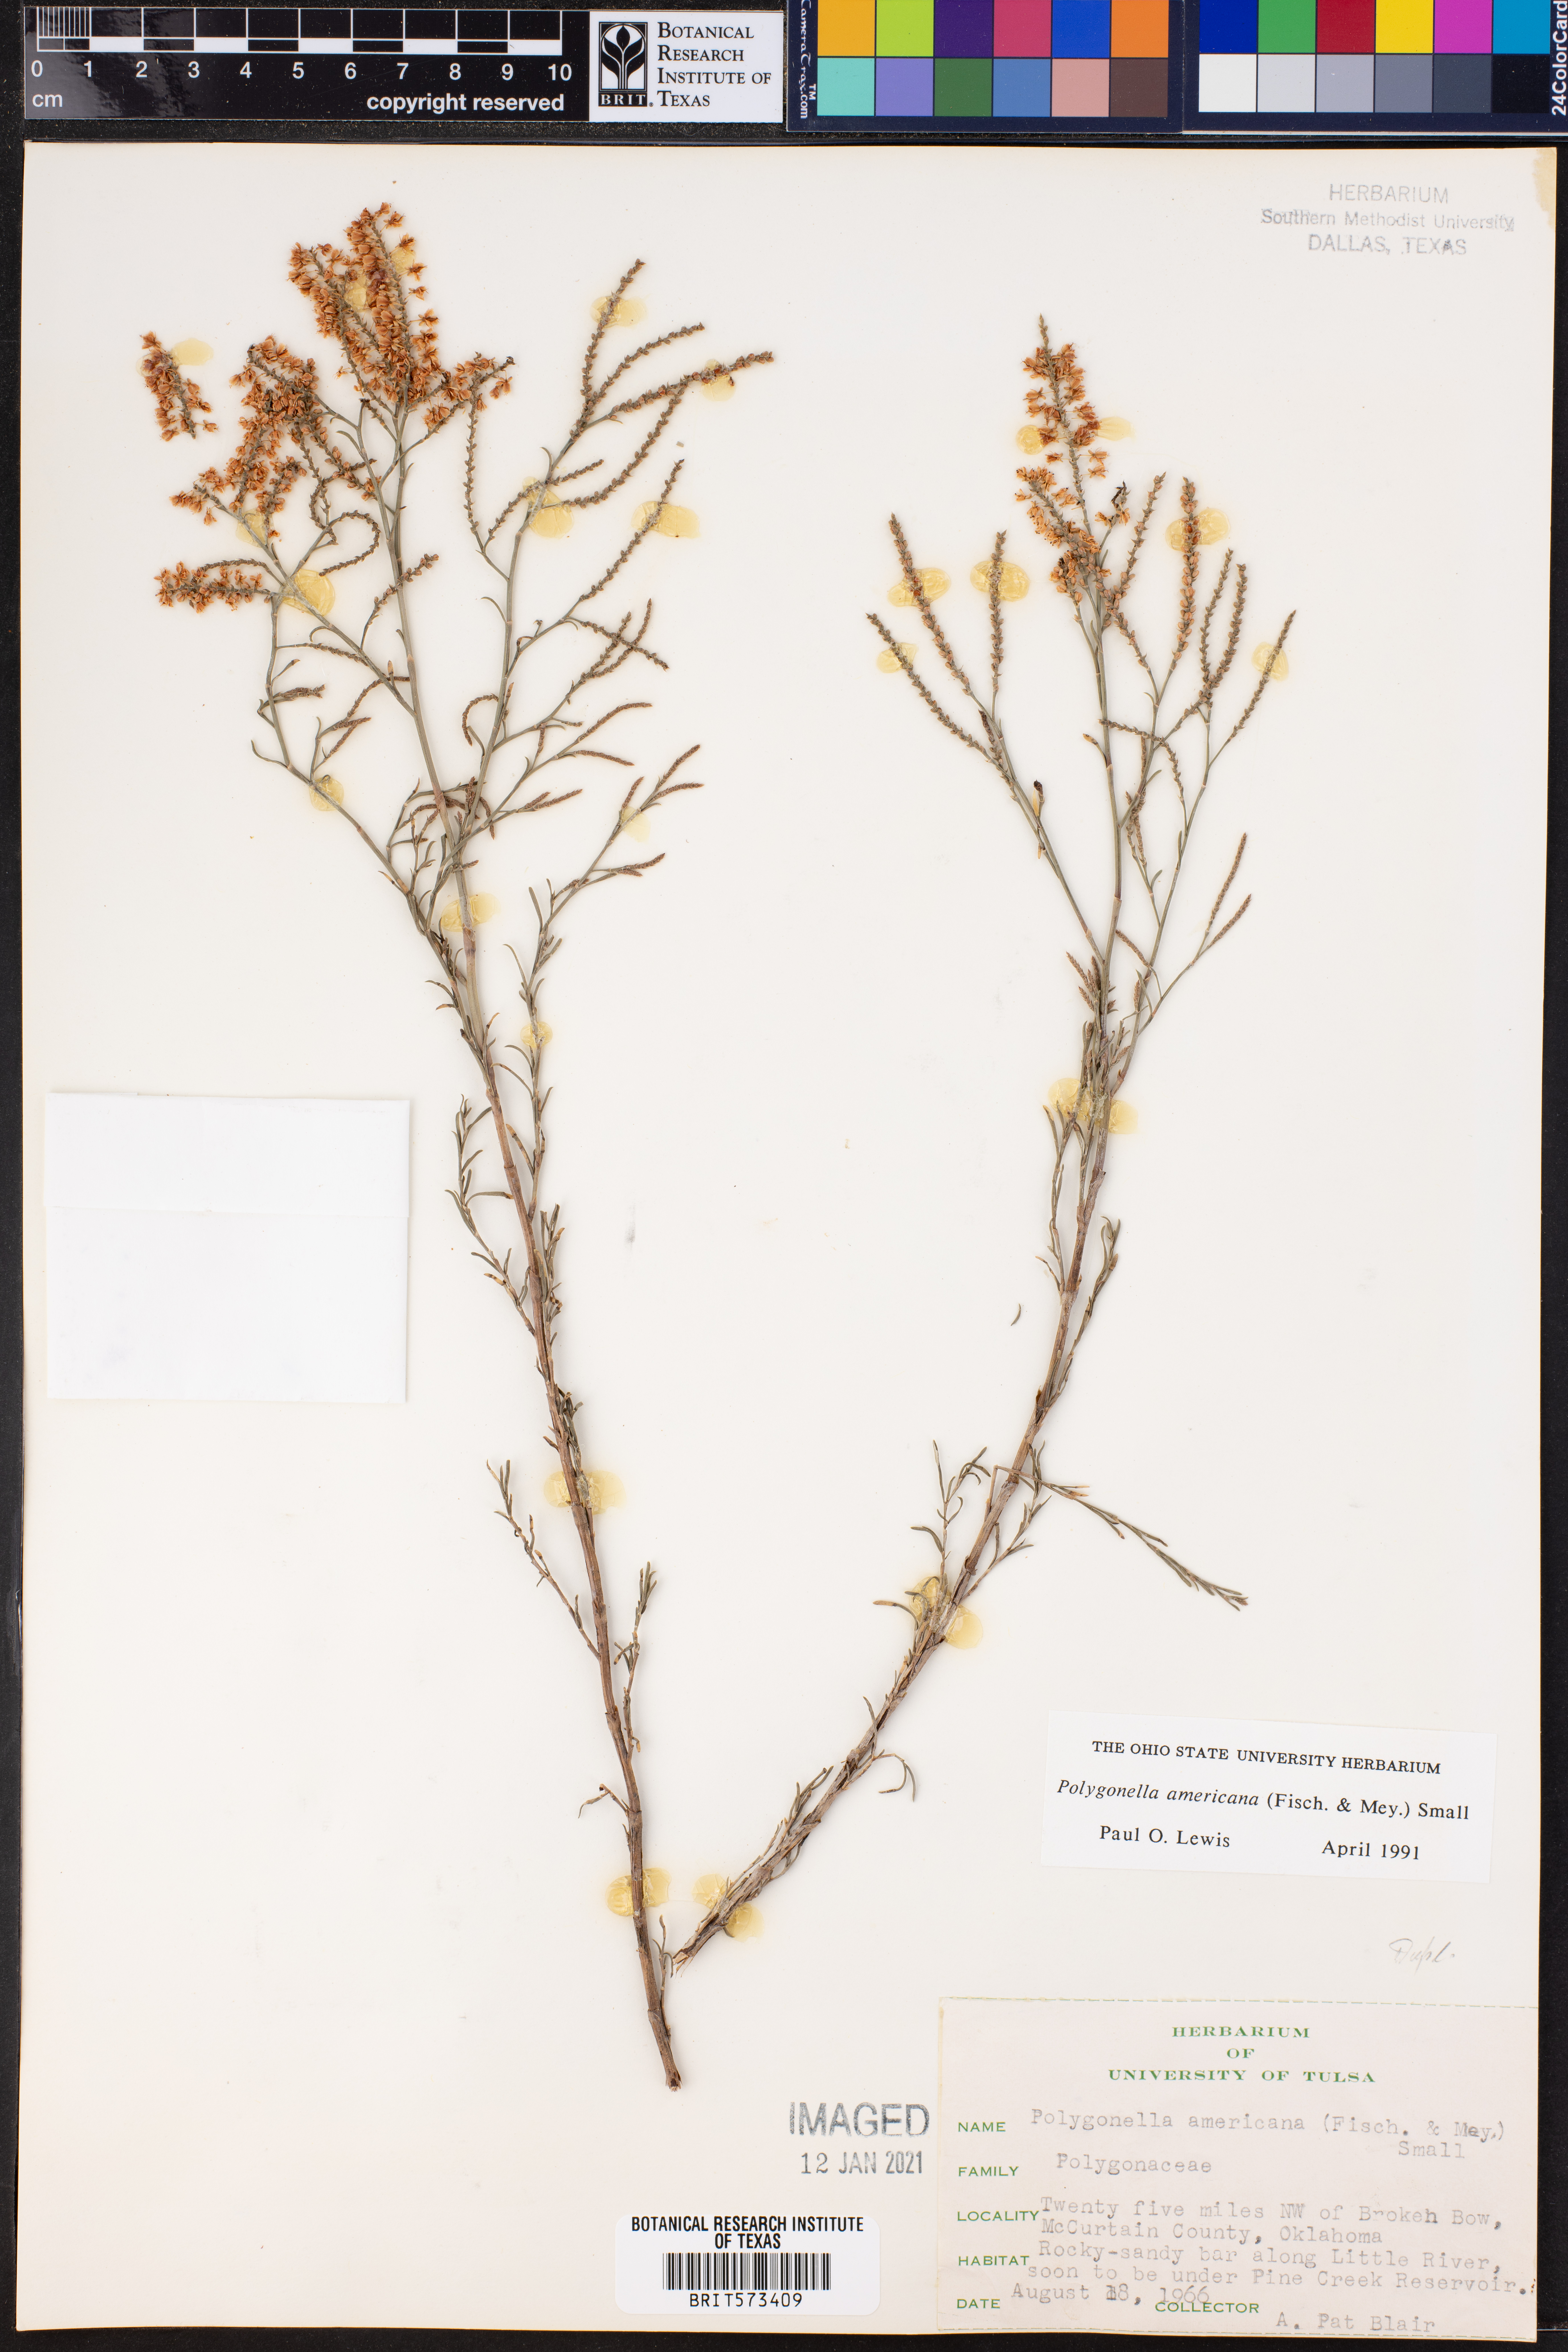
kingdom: Plantae
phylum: Tracheophyta
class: Magnoliopsida
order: Caryophyllales
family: Polygonaceae
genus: Polygonella
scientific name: Polygonella americana
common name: Southern jointweed
